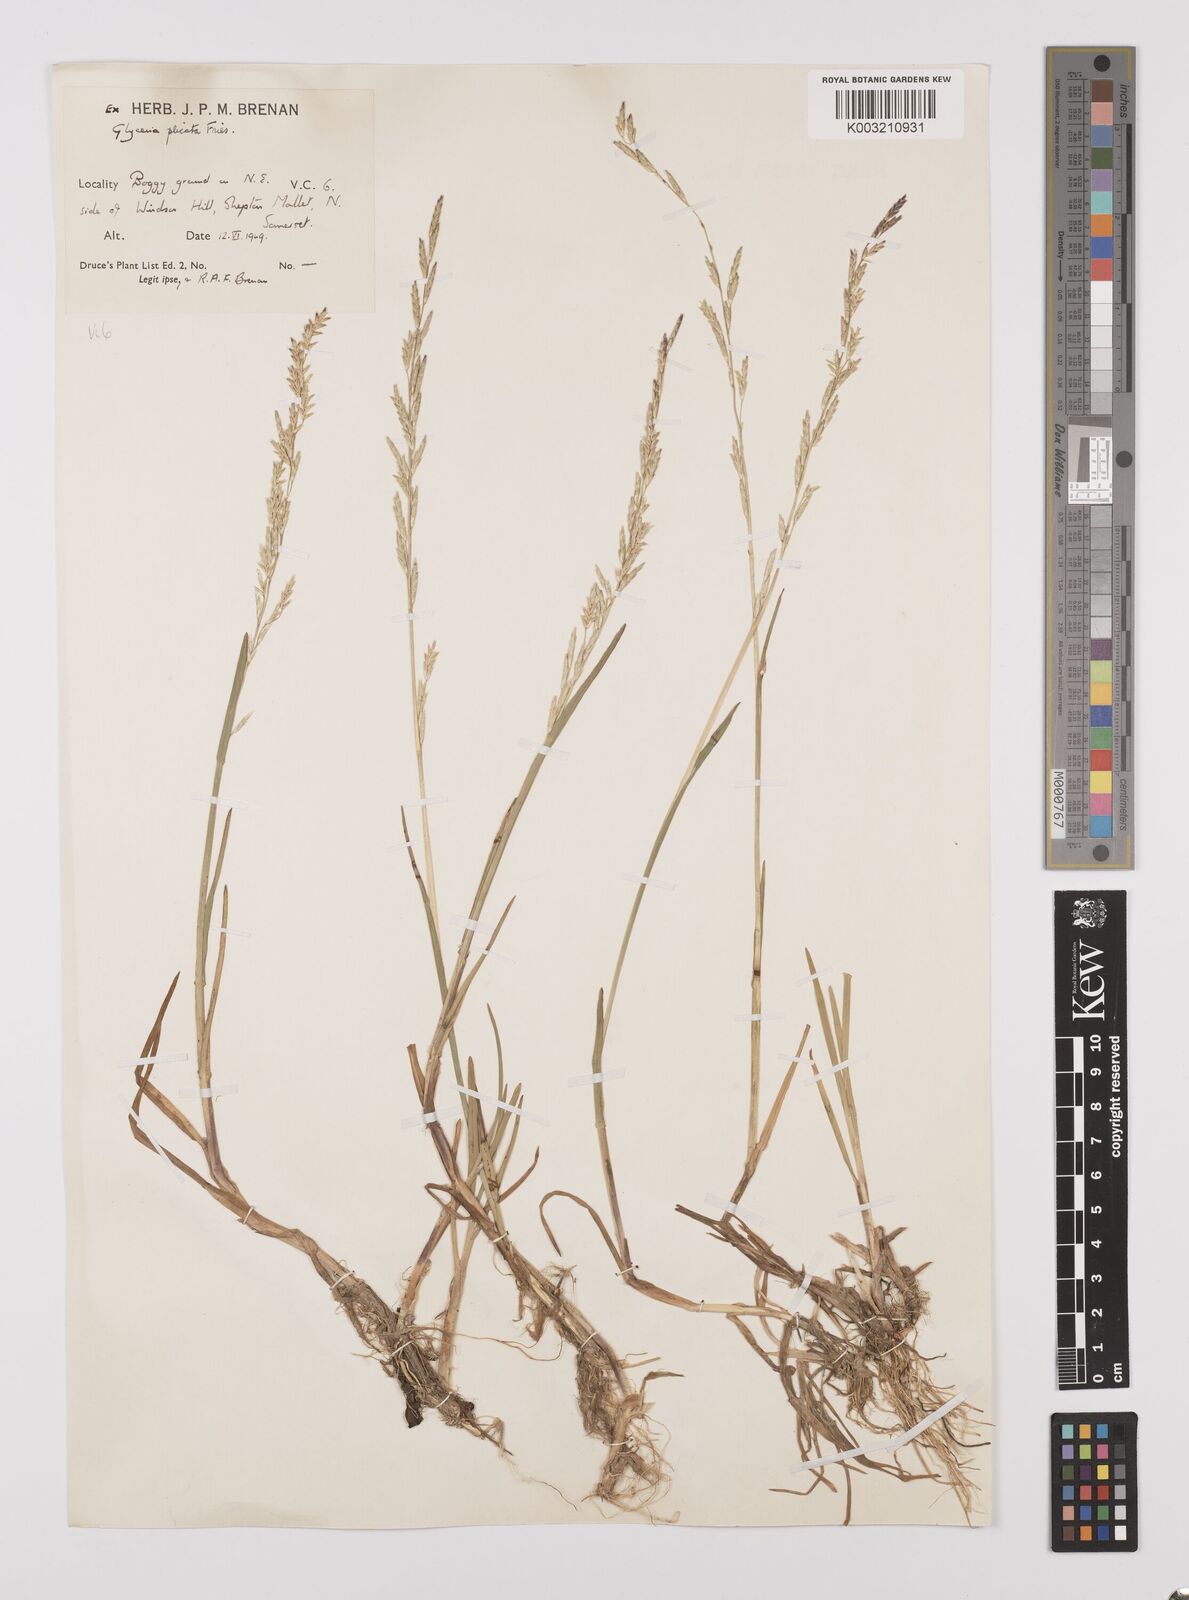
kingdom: Plantae
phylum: Tracheophyta
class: Liliopsida
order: Poales
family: Poaceae
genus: Glyceria
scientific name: Glyceria notata
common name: Plicate sweet-grass
